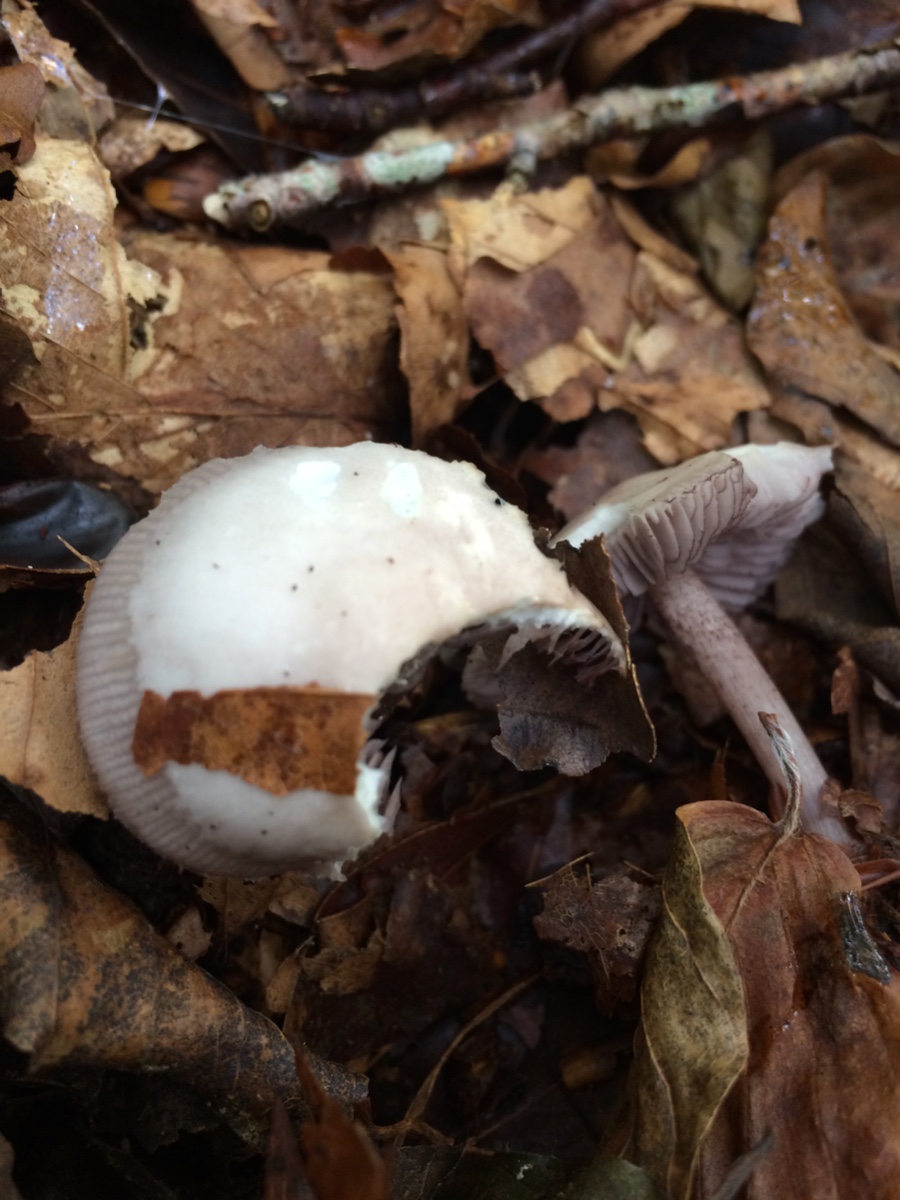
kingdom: Fungi
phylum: Basidiomycota
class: Agaricomycetes
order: Agaricales
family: Mycenaceae
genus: Mycena
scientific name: Mycena pelianthina
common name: mørkbladet huesvamp
